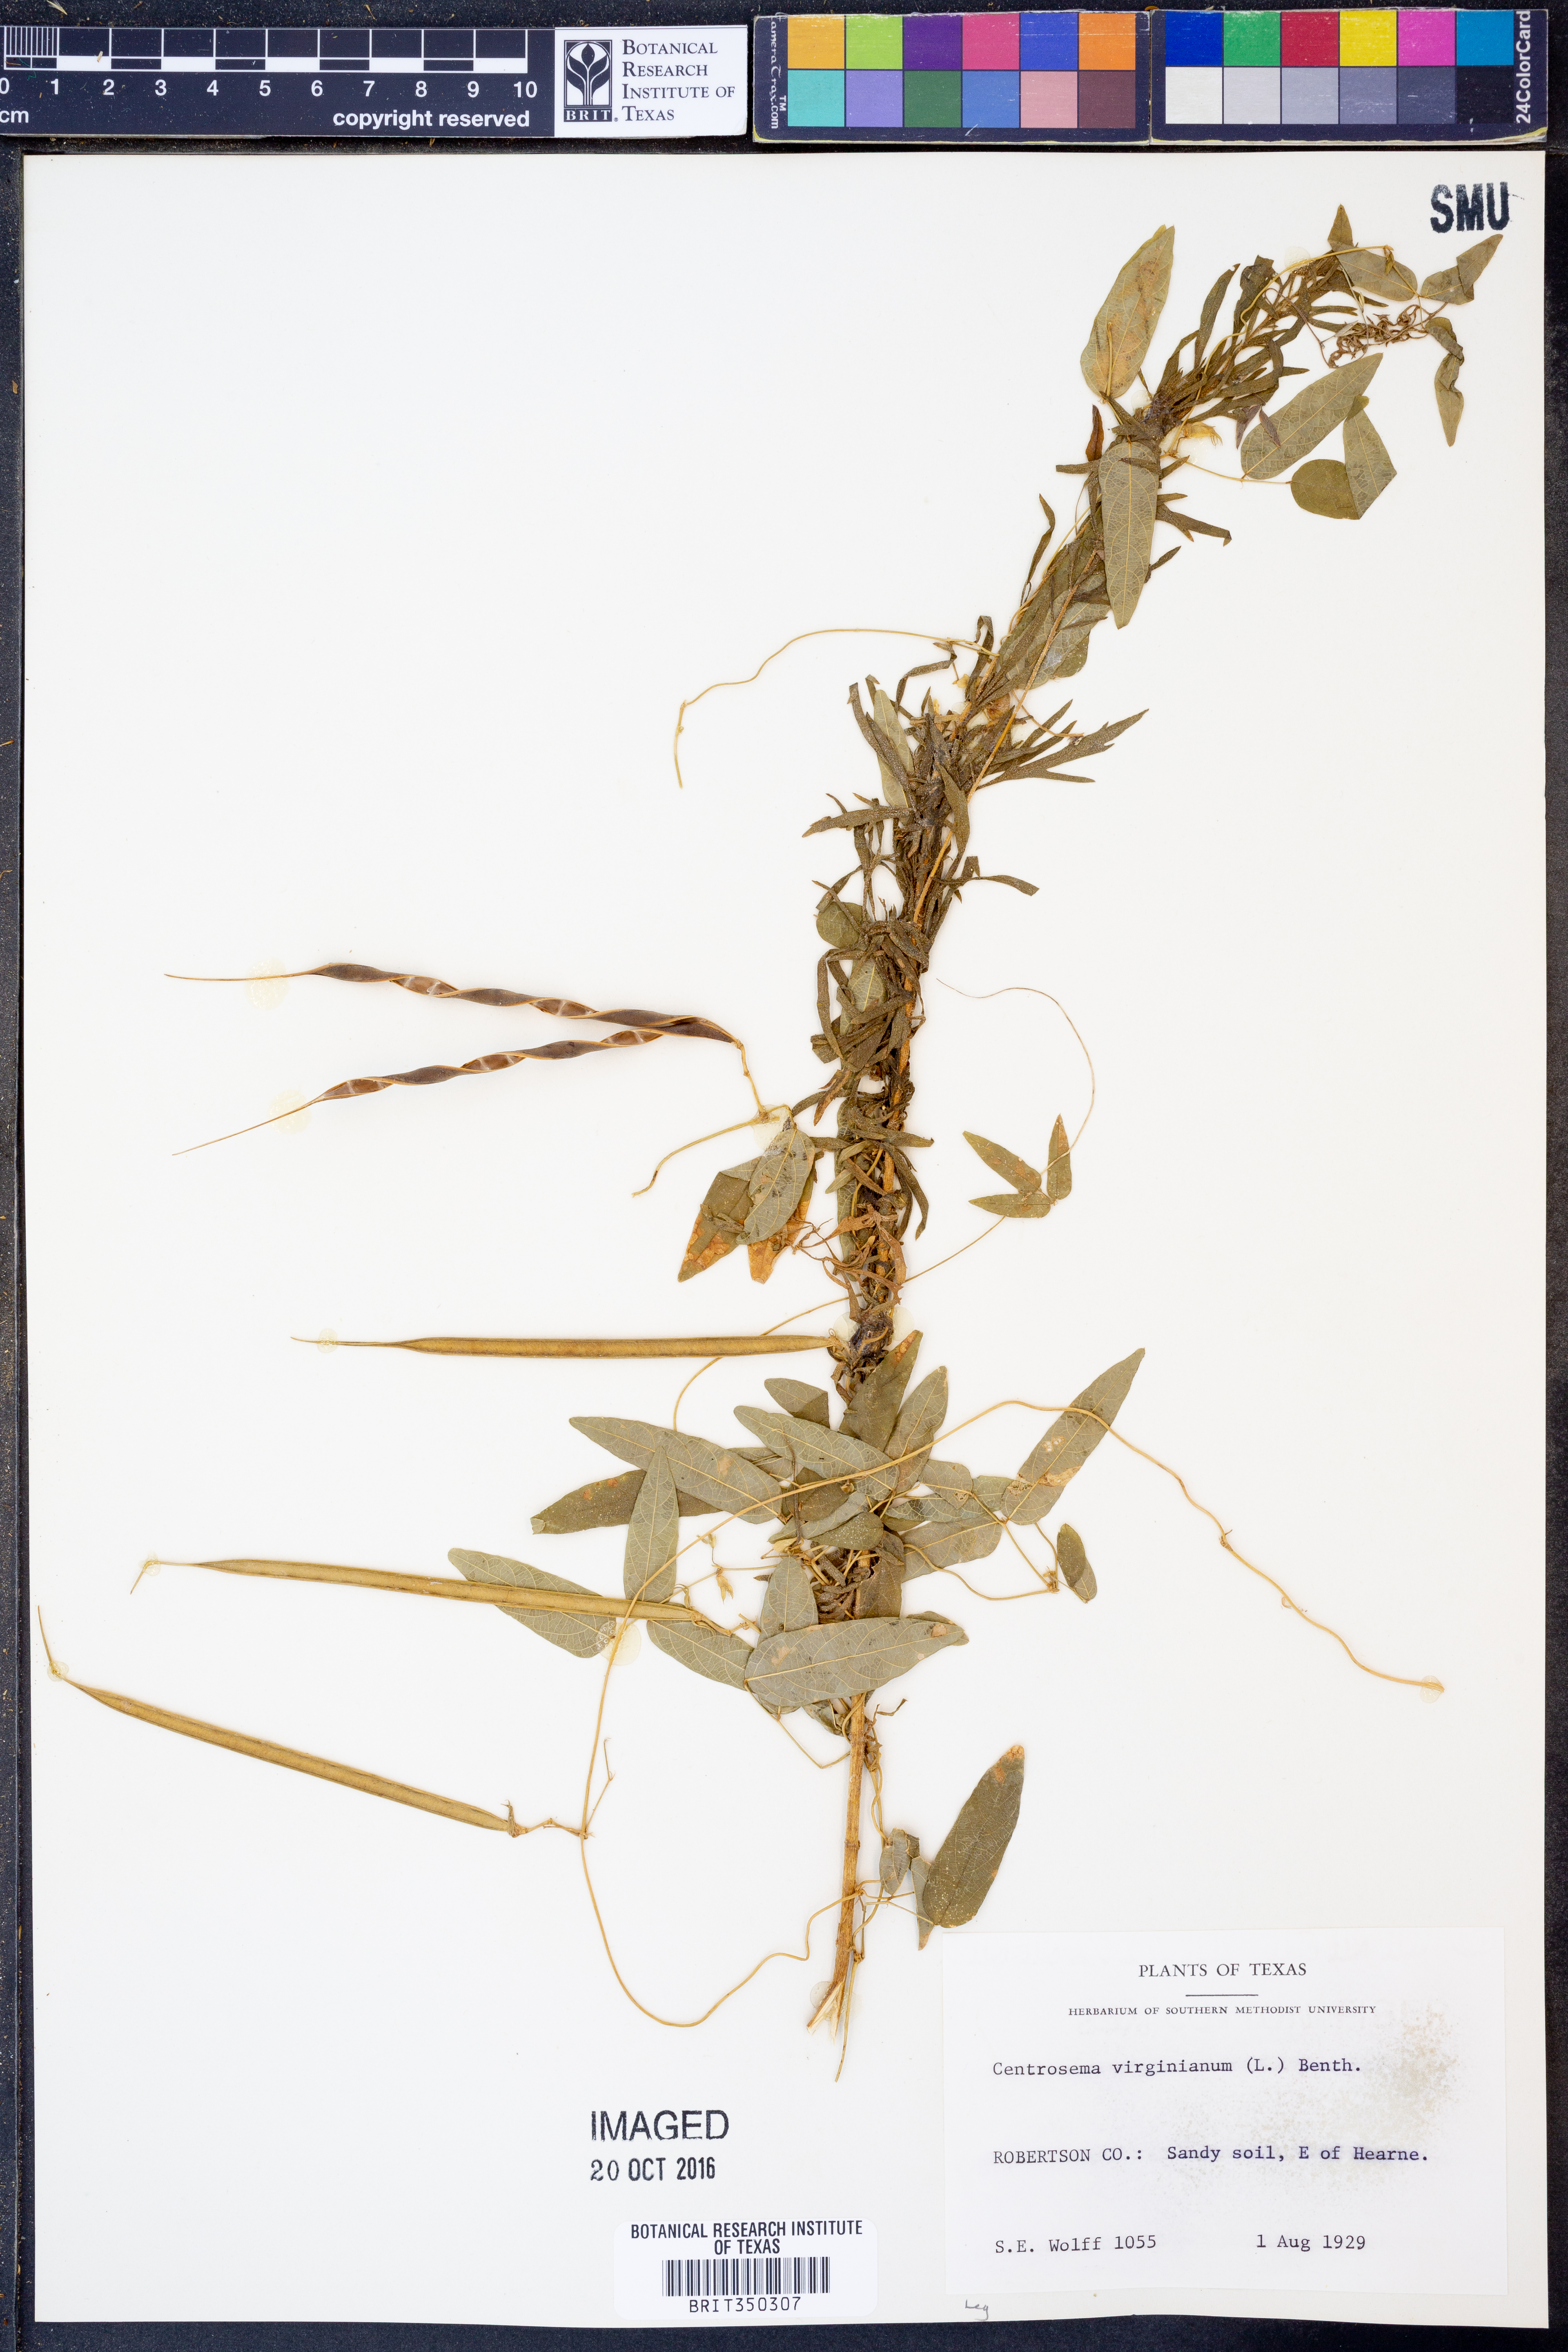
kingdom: Plantae
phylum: Tracheophyta
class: Magnoliopsida
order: Fabales
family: Fabaceae
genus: Centrosema
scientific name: Centrosema virginianum
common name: Butterfly-pea
